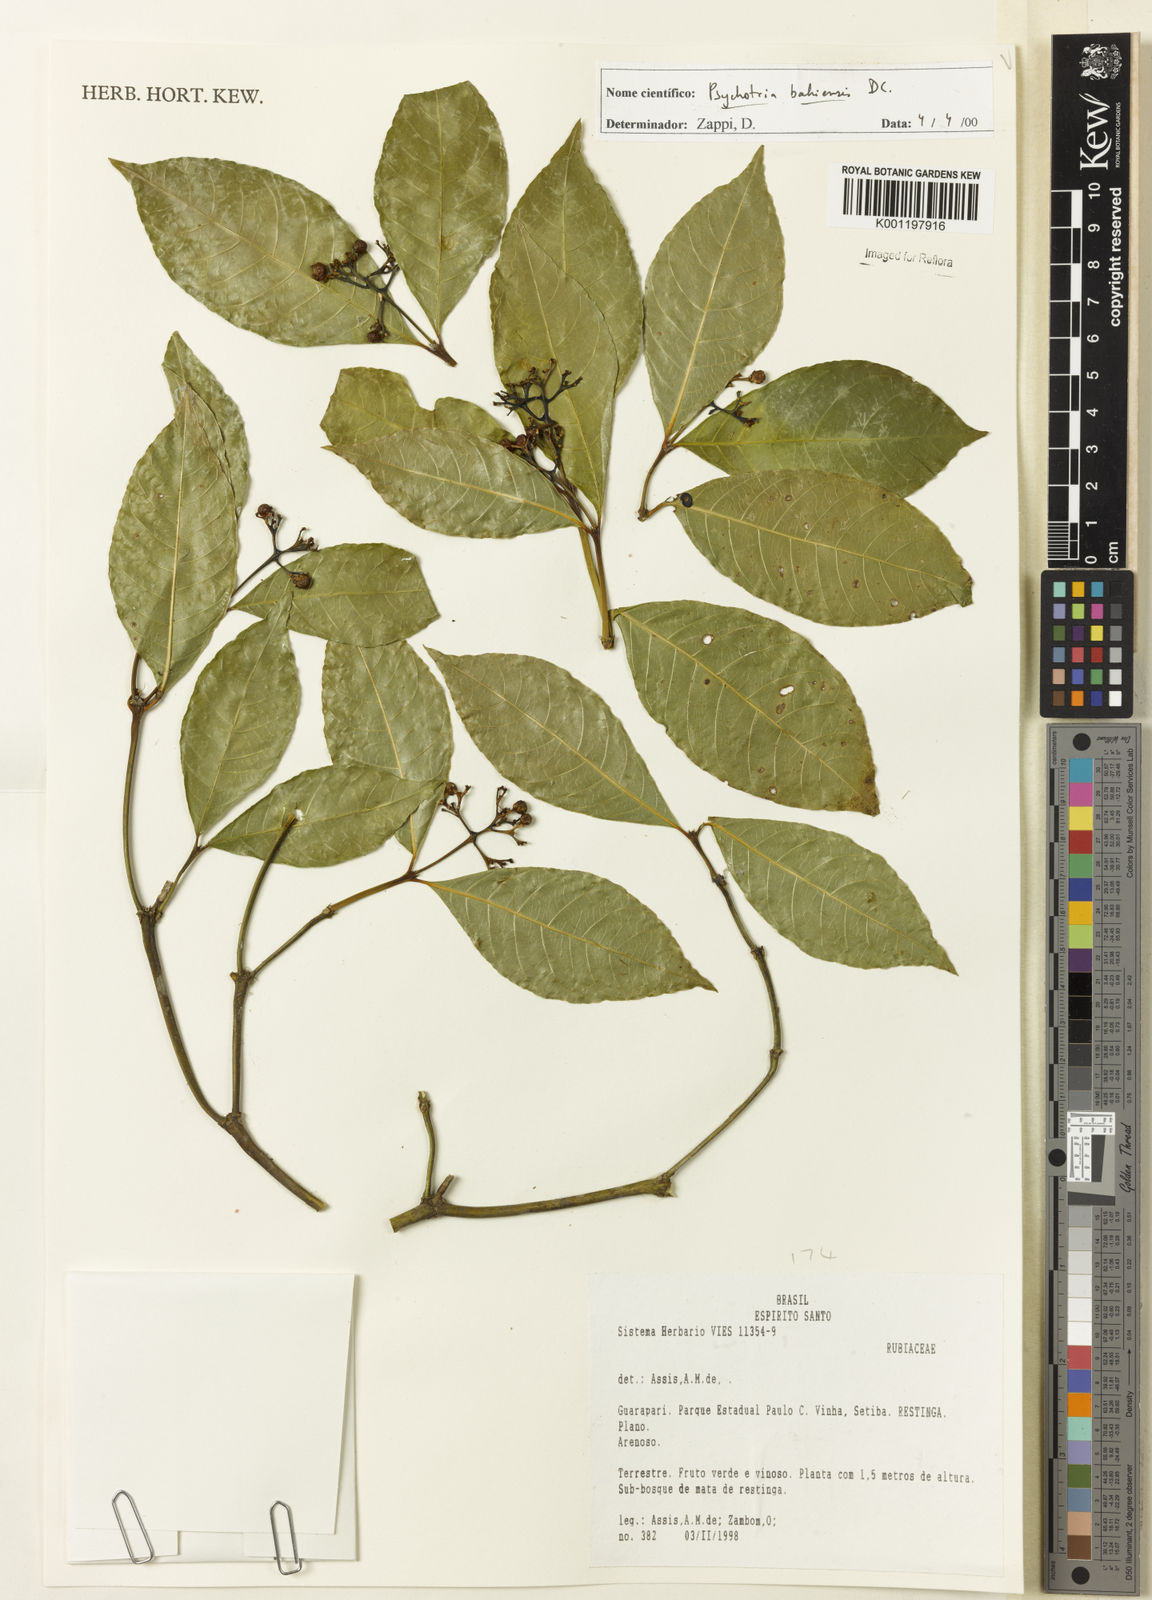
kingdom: Plantae
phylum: Tracheophyta
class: Magnoliopsida
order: Gentianales
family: Rubiaceae
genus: Psychotria
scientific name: Psychotria bahiensis
